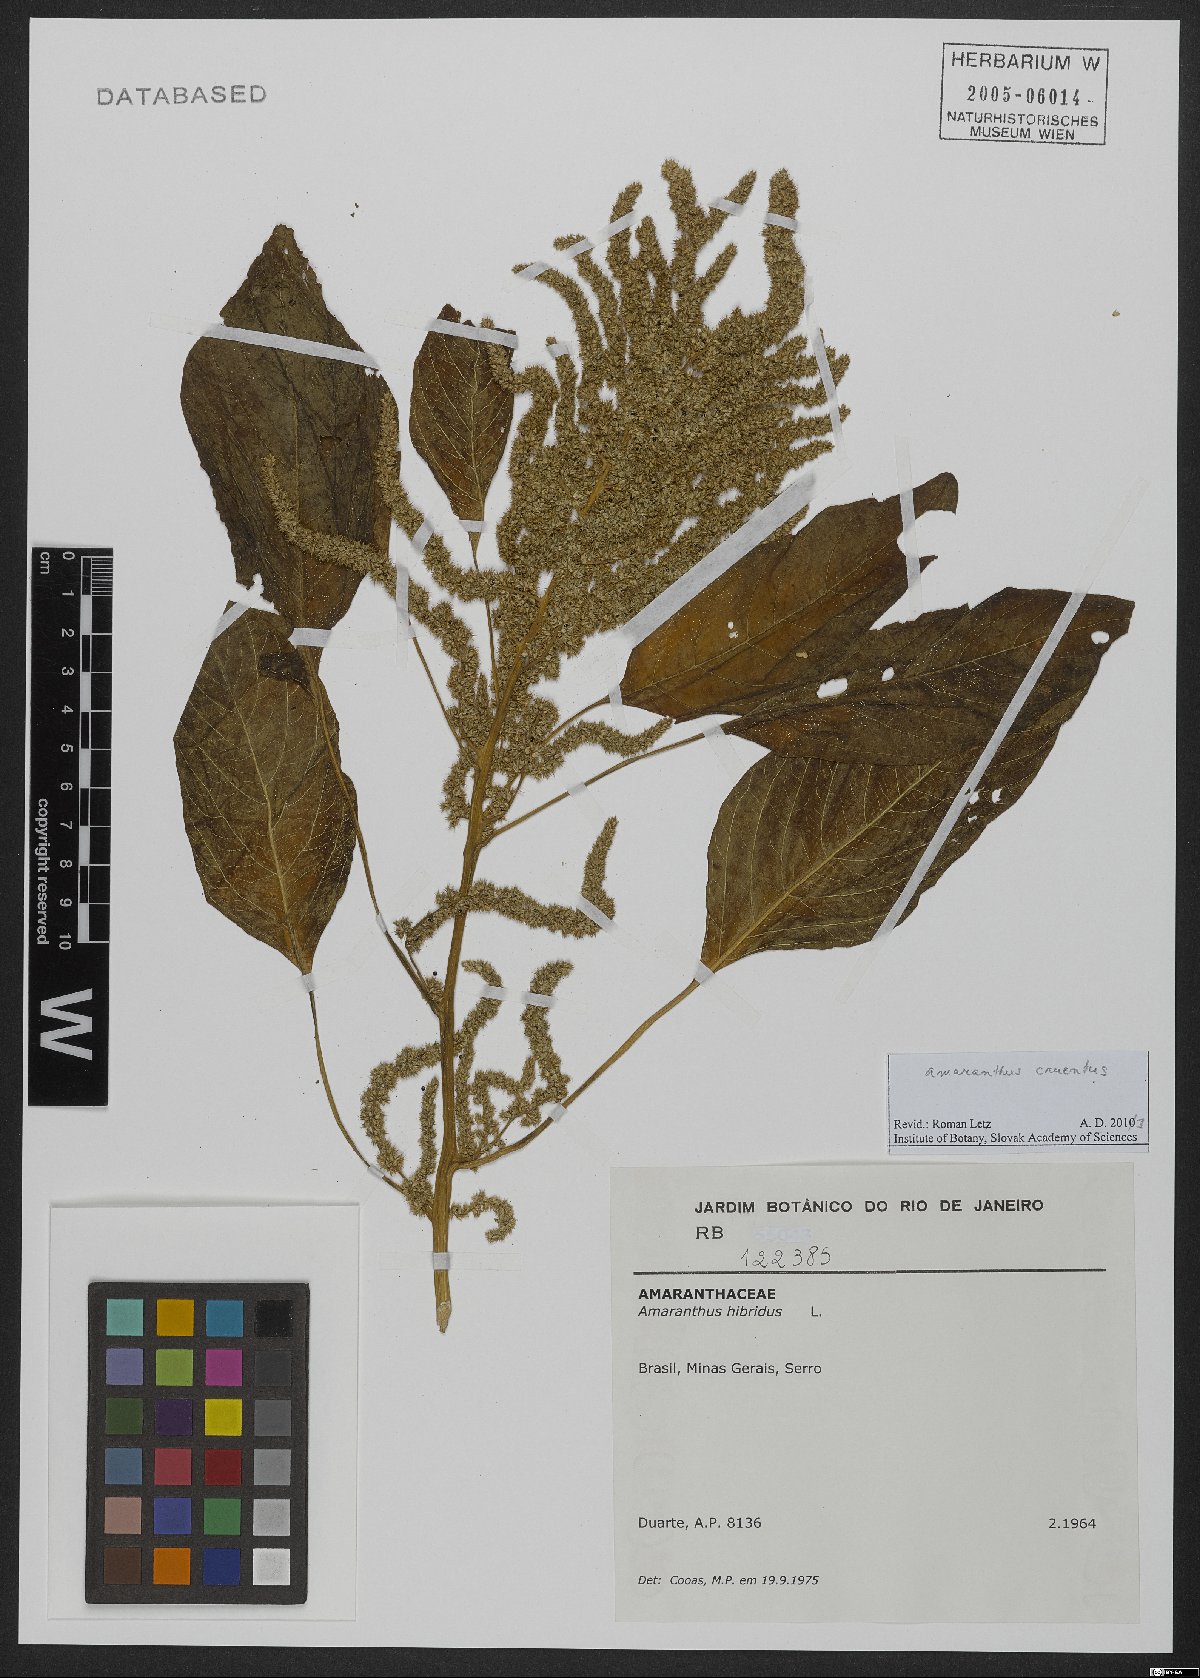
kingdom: Plantae
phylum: Tracheophyta
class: Magnoliopsida
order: Caryophyllales
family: Amaranthaceae
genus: Amaranthus
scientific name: Amaranthus cruentus
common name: Purple amaranth
